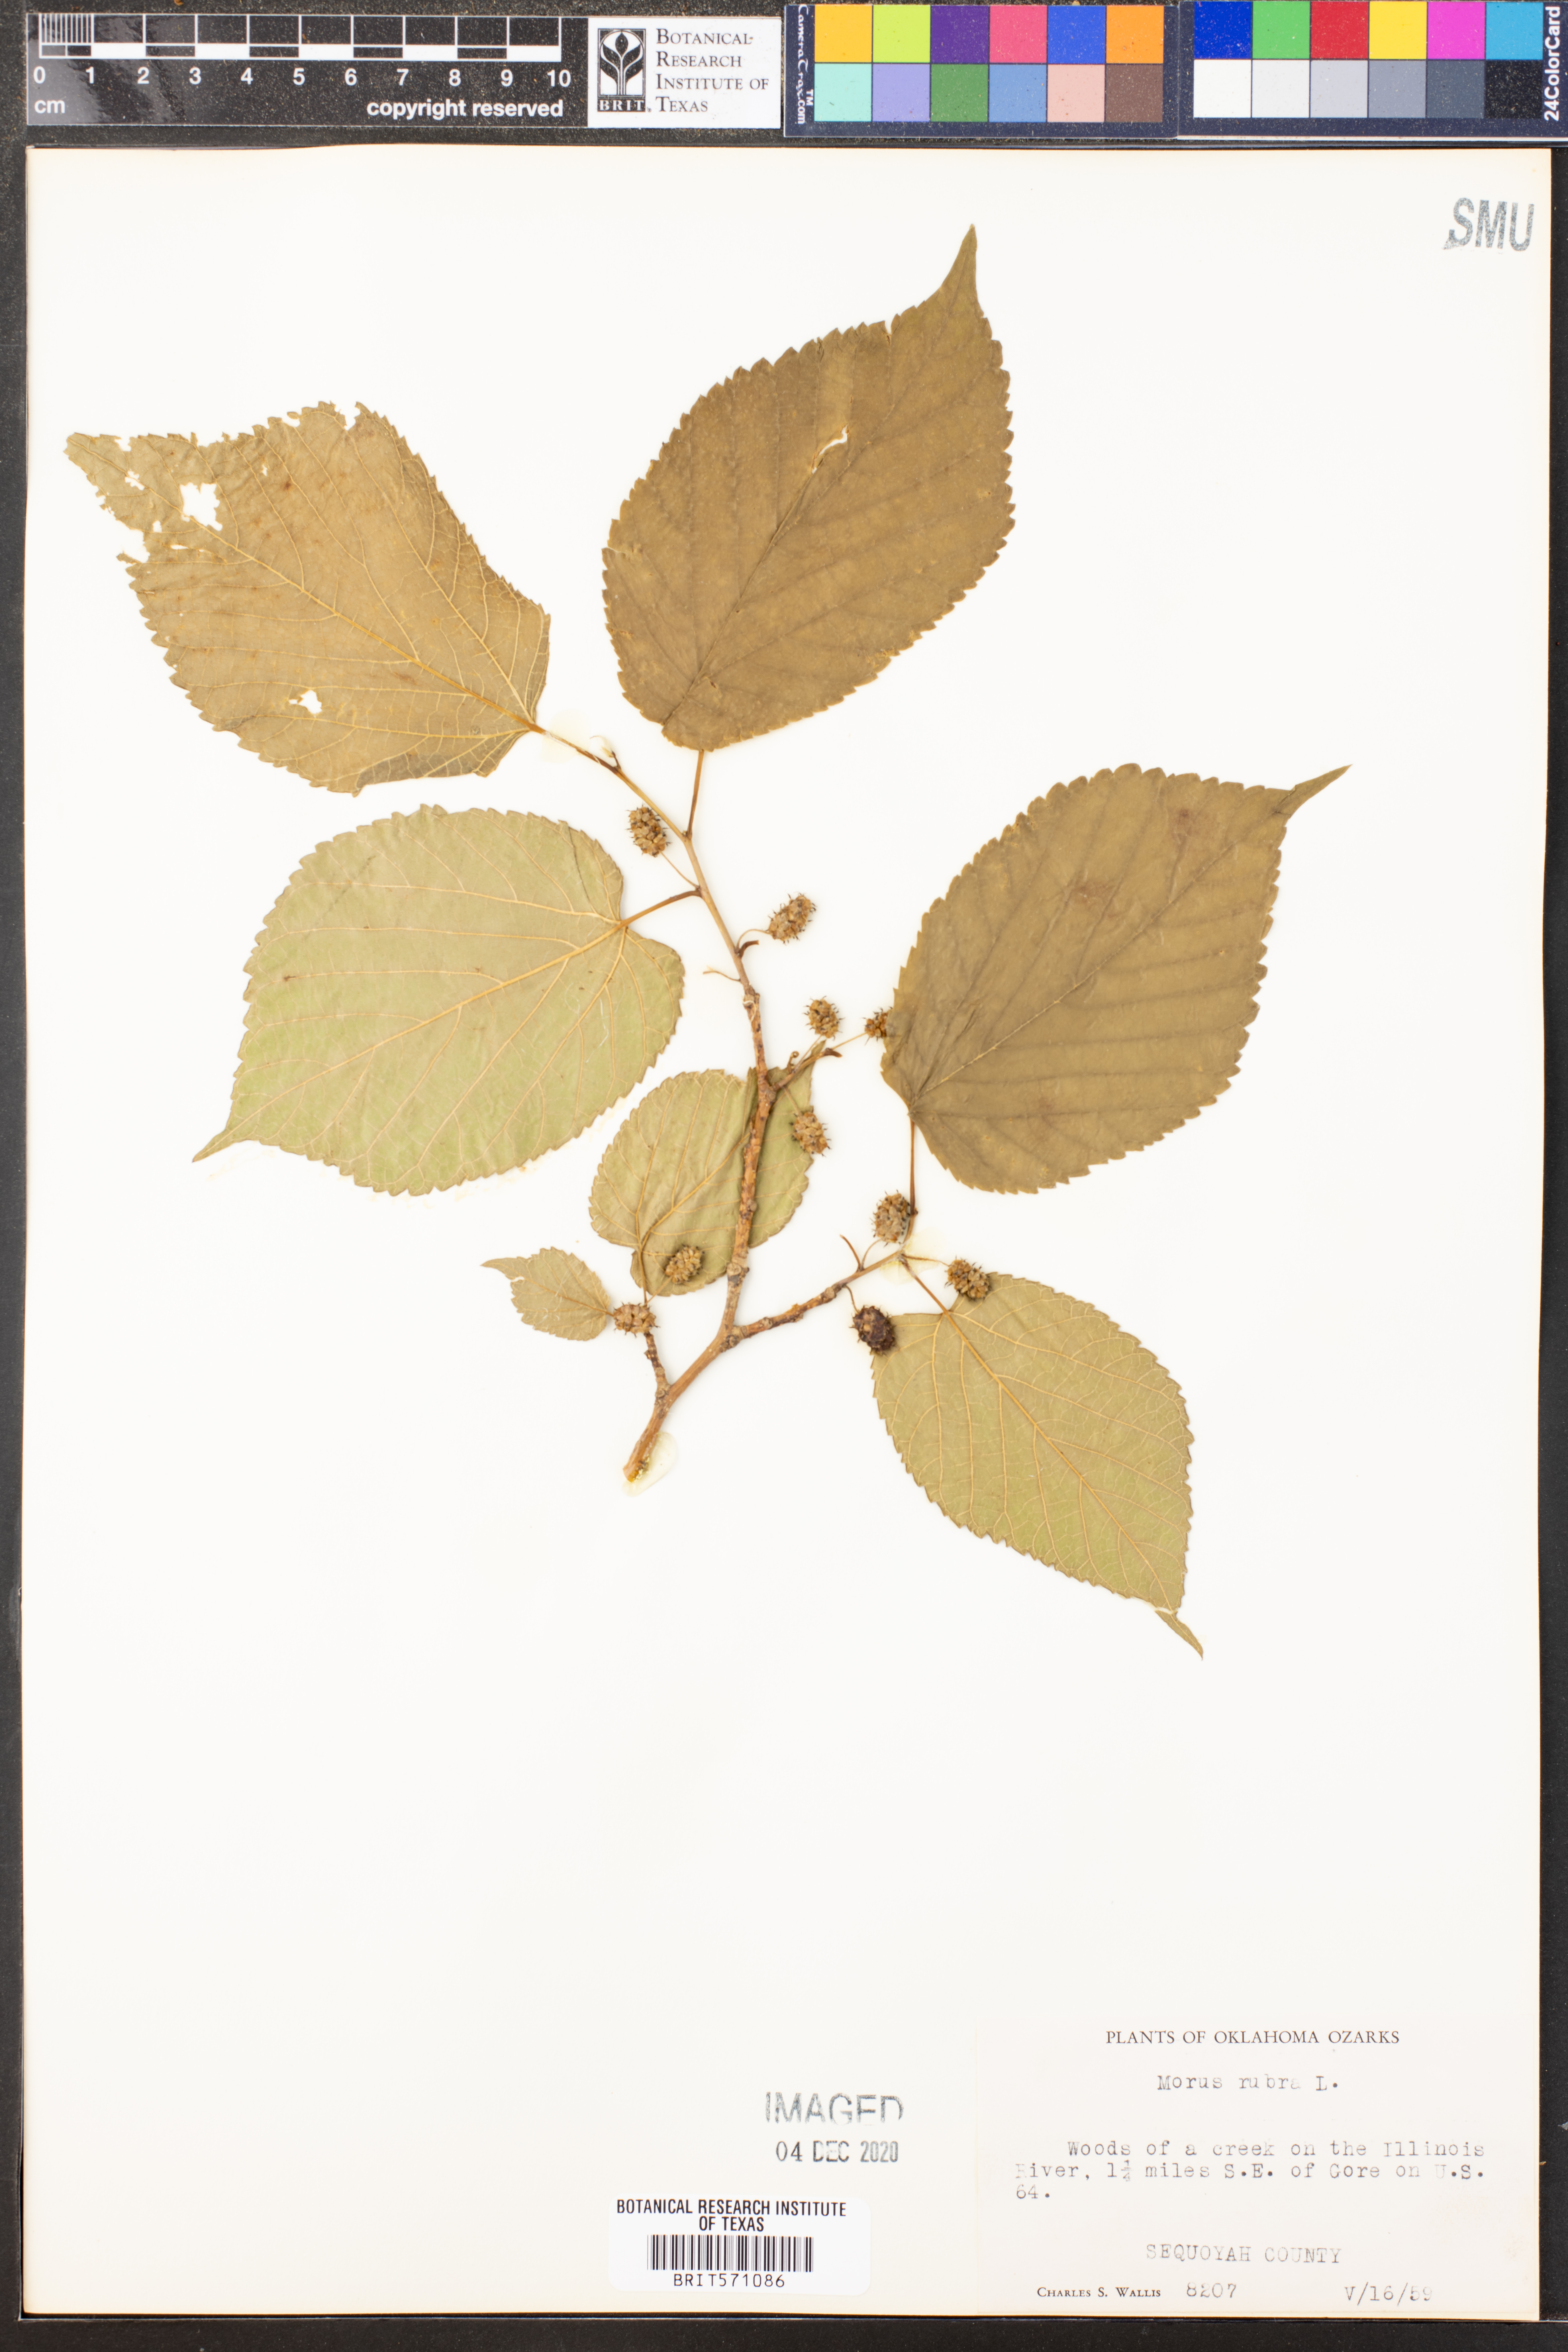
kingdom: Plantae
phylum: Tracheophyta
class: Magnoliopsida
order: Rosales
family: Moraceae
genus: Morus
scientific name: Morus rubra
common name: Red mulberry
